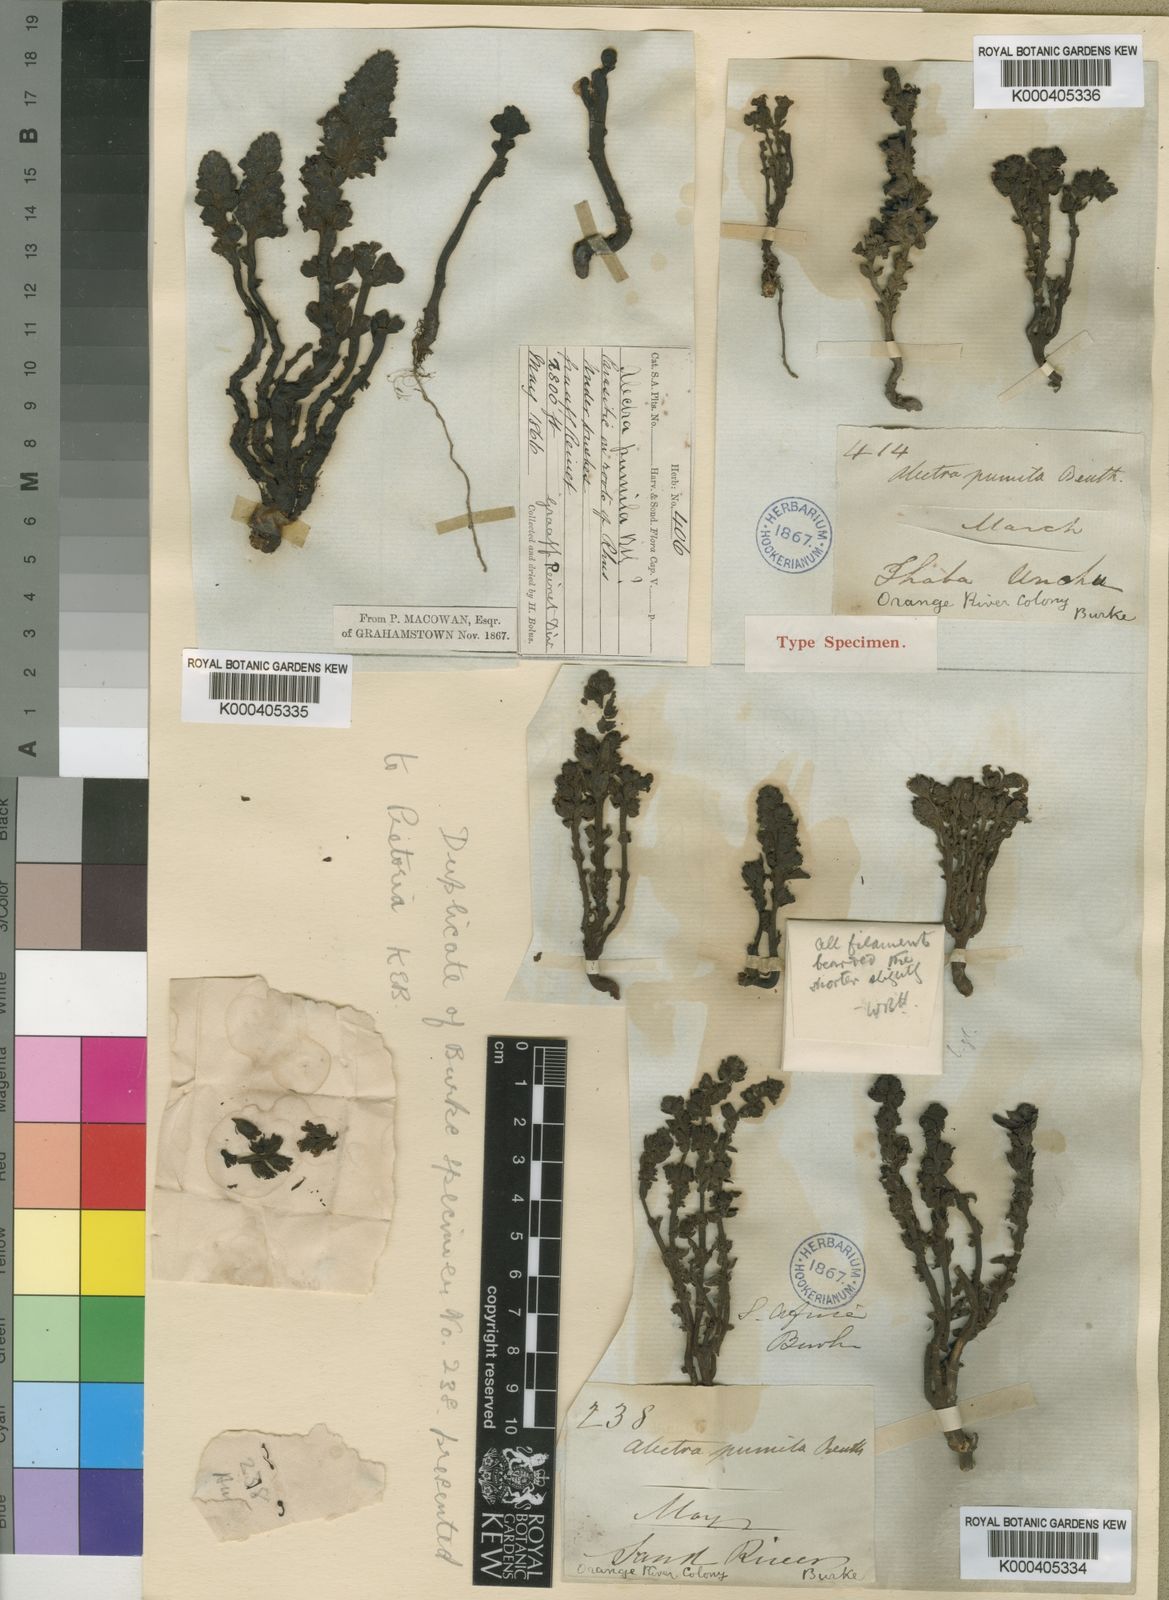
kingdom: Plantae
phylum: Tracheophyta
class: Magnoliopsida
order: Lamiales
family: Orobanchaceae
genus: Alectra
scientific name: Alectra orobanchoides
